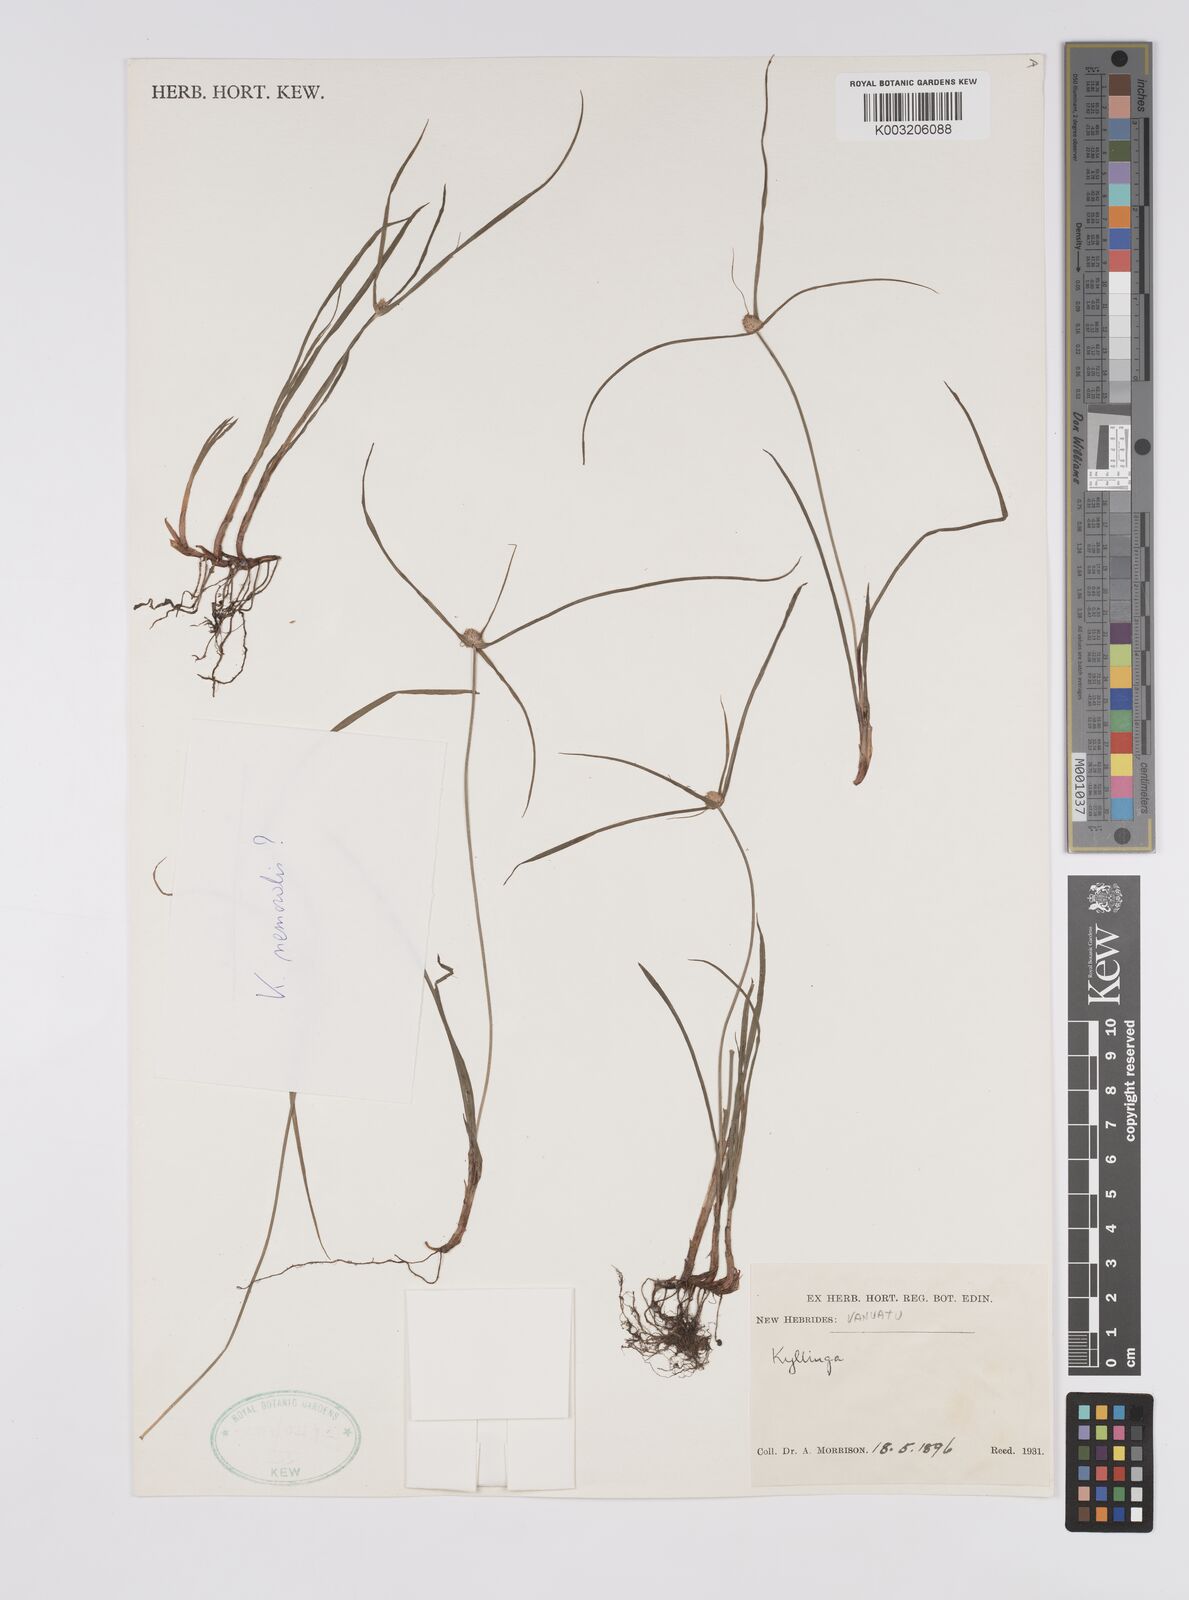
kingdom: Plantae
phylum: Tracheophyta
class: Liliopsida
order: Poales
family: Cyperaceae
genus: Cyperus
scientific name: Cyperus nemoralis
